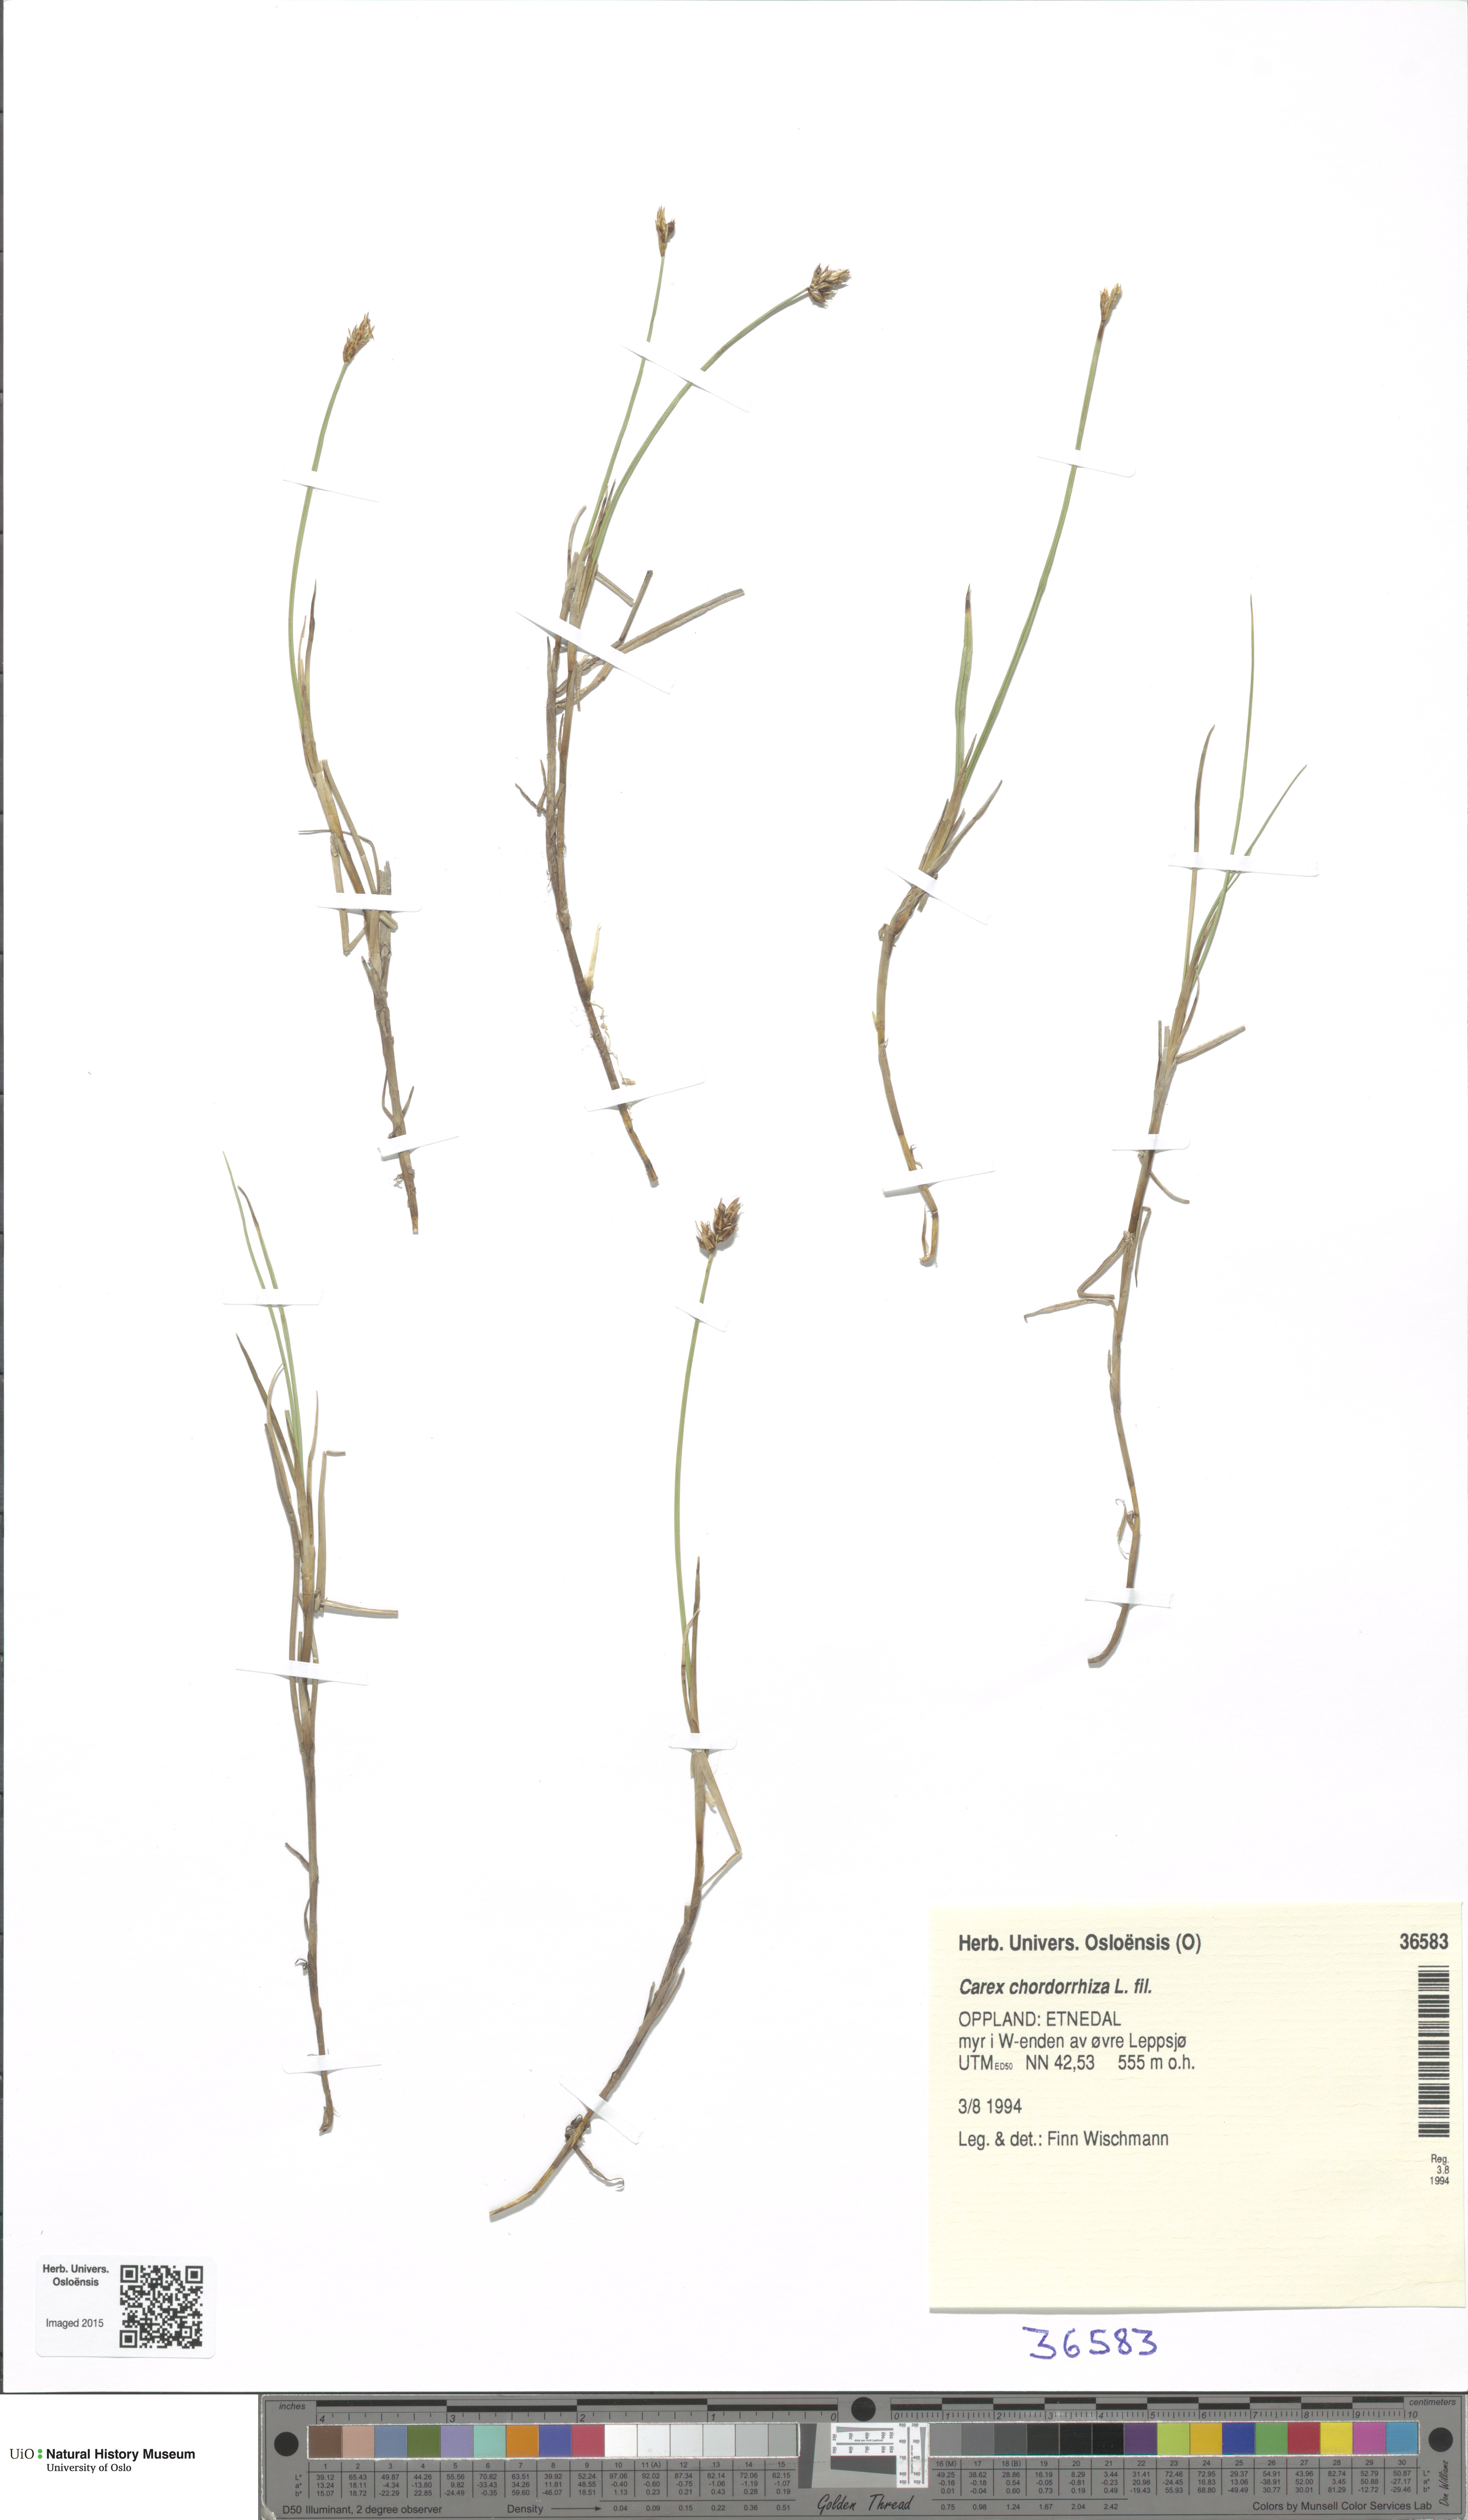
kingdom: Plantae
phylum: Tracheophyta
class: Liliopsida
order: Poales
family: Cyperaceae
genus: Carex
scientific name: Carex chordorrhiza
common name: String sedge
